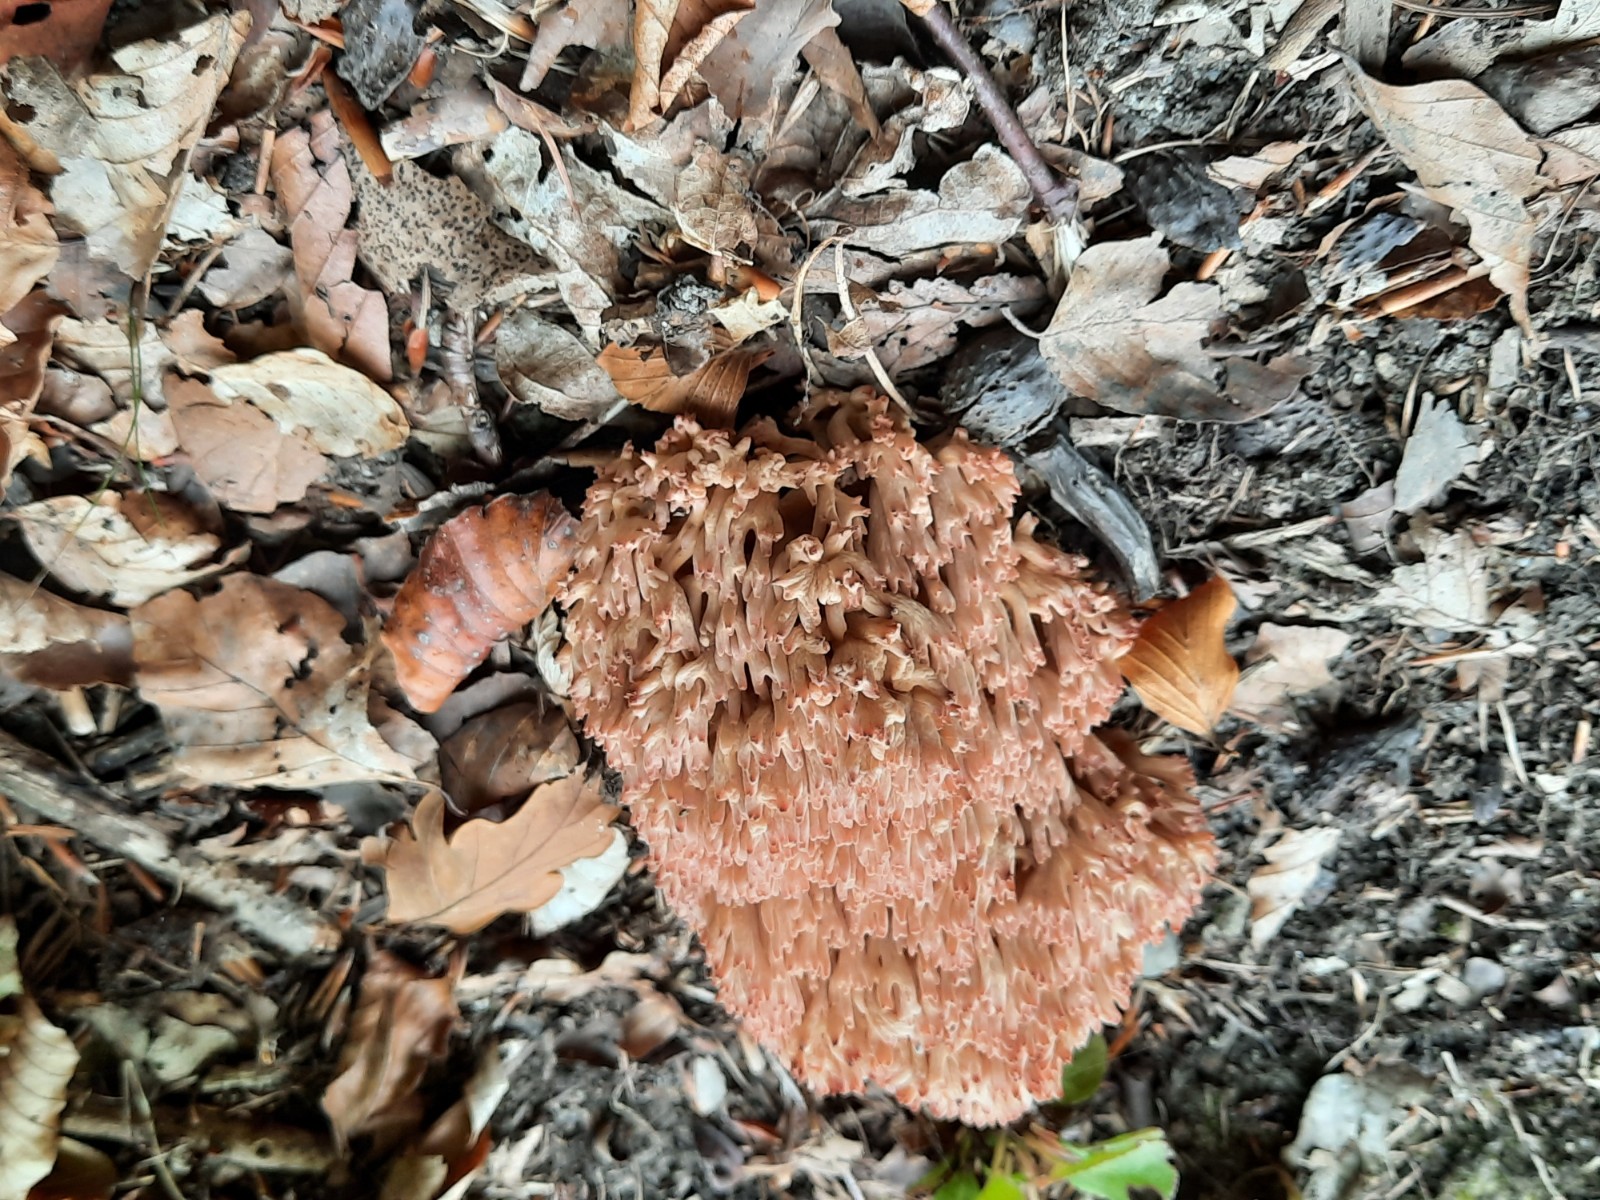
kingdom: Fungi
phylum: Basidiomycota
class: Agaricomycetes
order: Gomphales
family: Gomphaceae
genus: Ramaria
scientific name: Ramaria botrytis
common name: drue-koralsvamp
